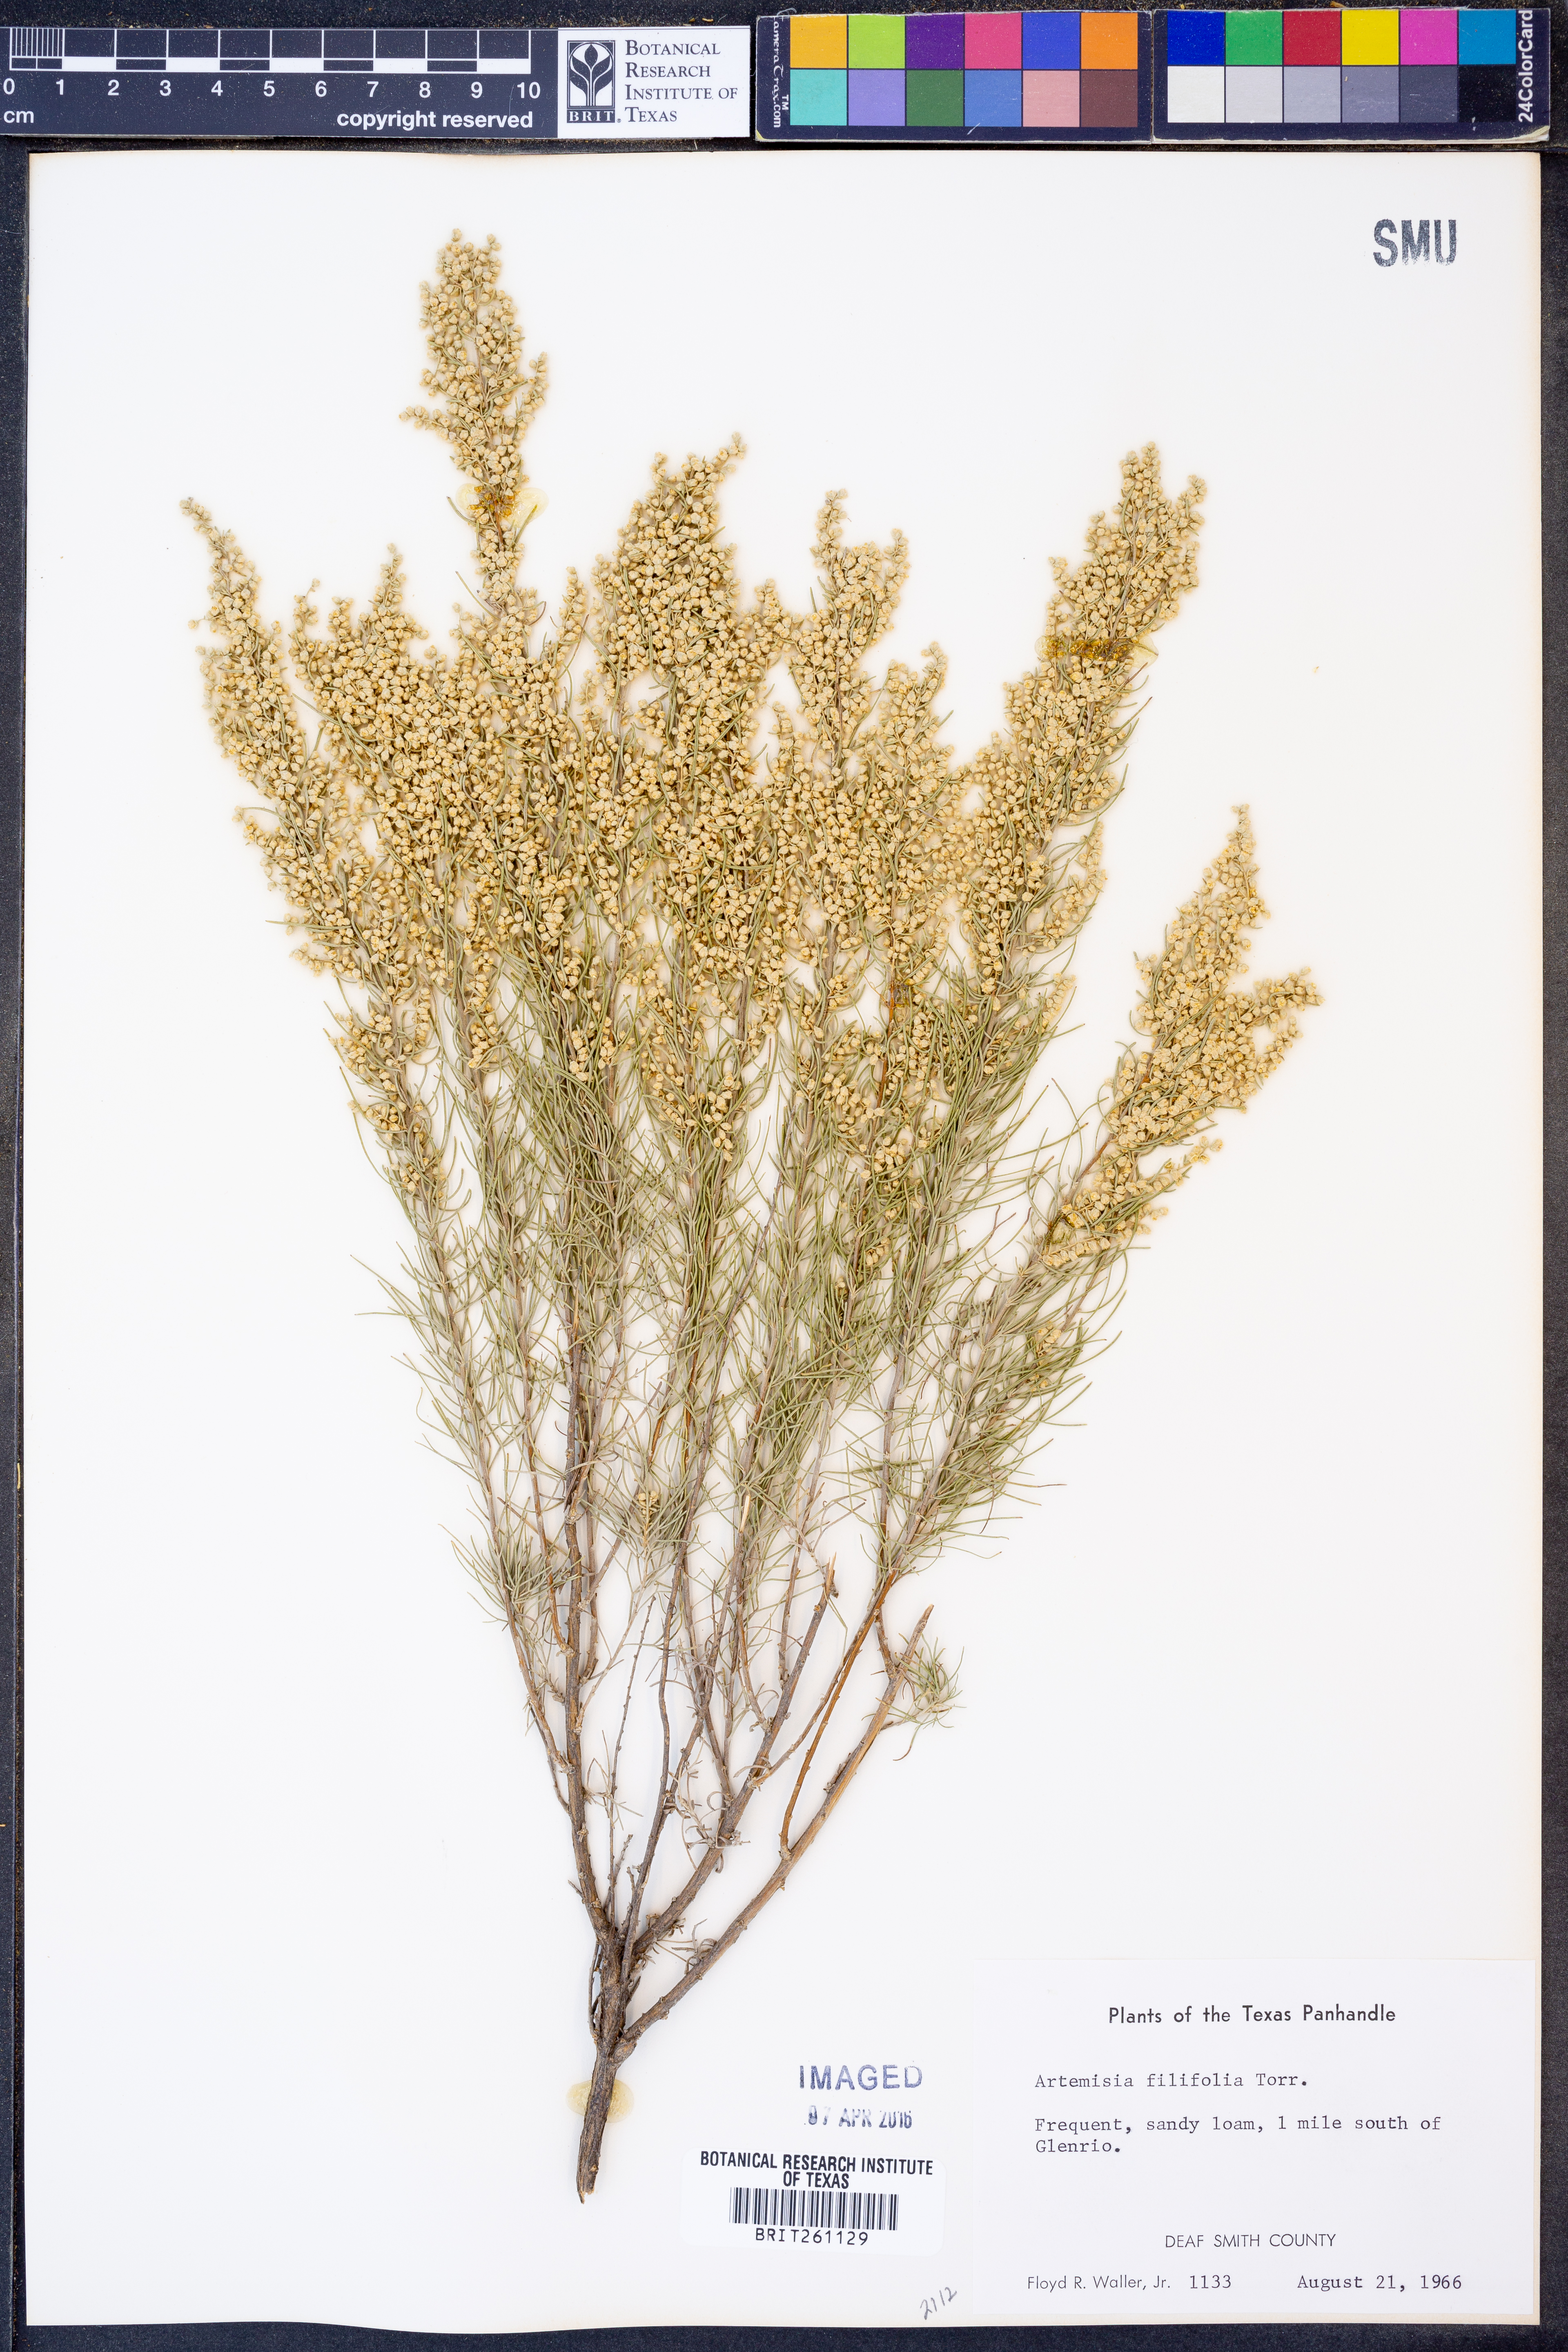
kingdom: Plantae
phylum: Tracheophyta
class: Magnoliopsida
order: Asterales
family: Asteraceae
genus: Artemisia
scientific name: Artemisia filifolia
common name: Sand-sage
